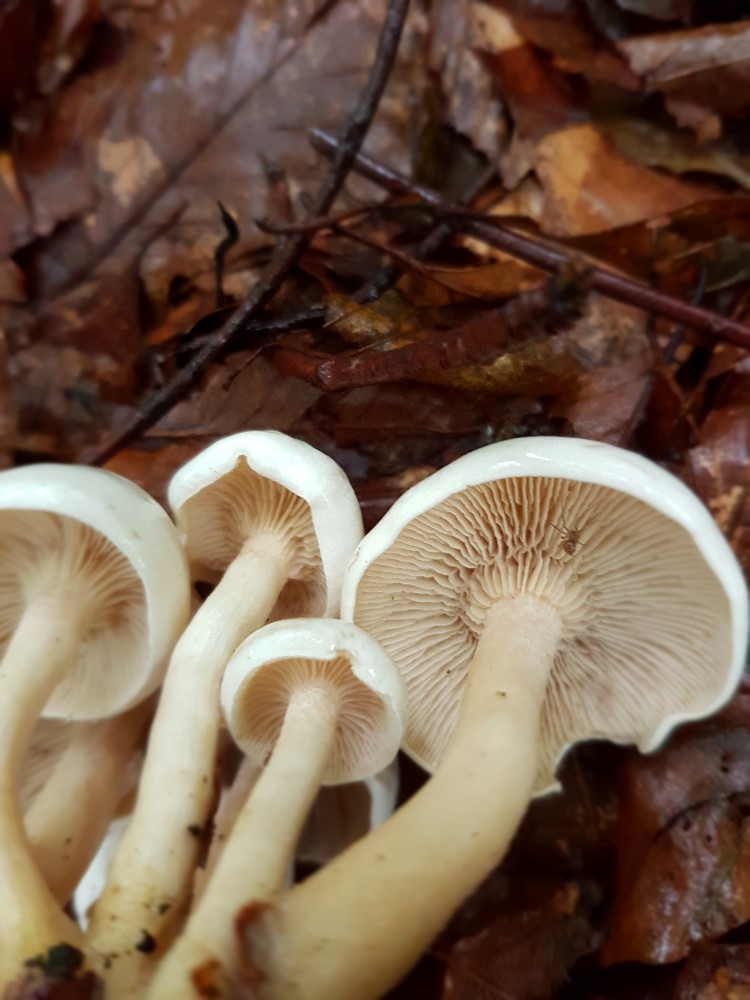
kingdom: Fungi
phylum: Basidiomycota
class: Agaricomycetes
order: Agaricales
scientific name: Agaricales
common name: champignonordenen
